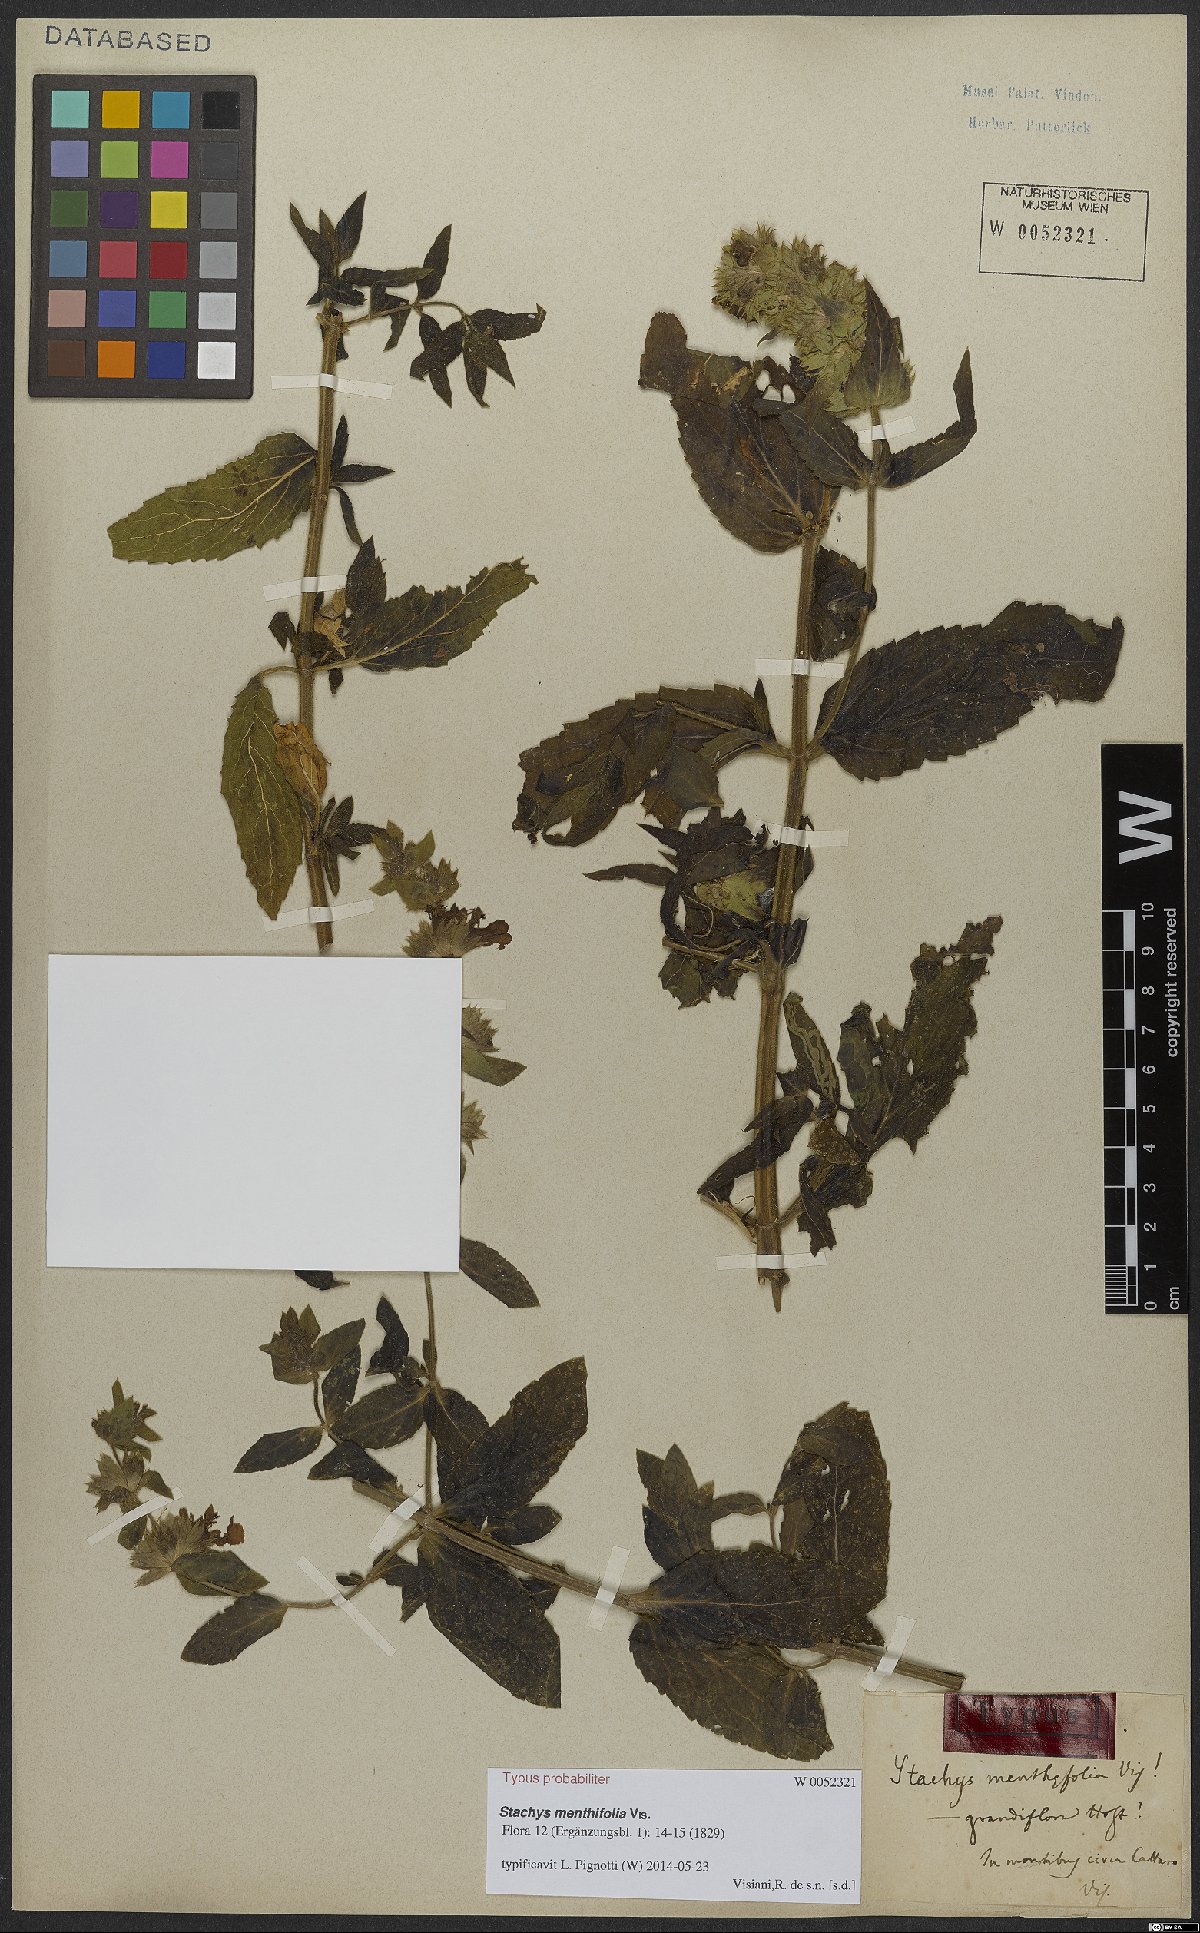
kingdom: Plantae
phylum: Tracheophyta
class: Magnoliopsida
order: Lamiales
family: Lamiaceae
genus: Stachys
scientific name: Stachys menthifolia
